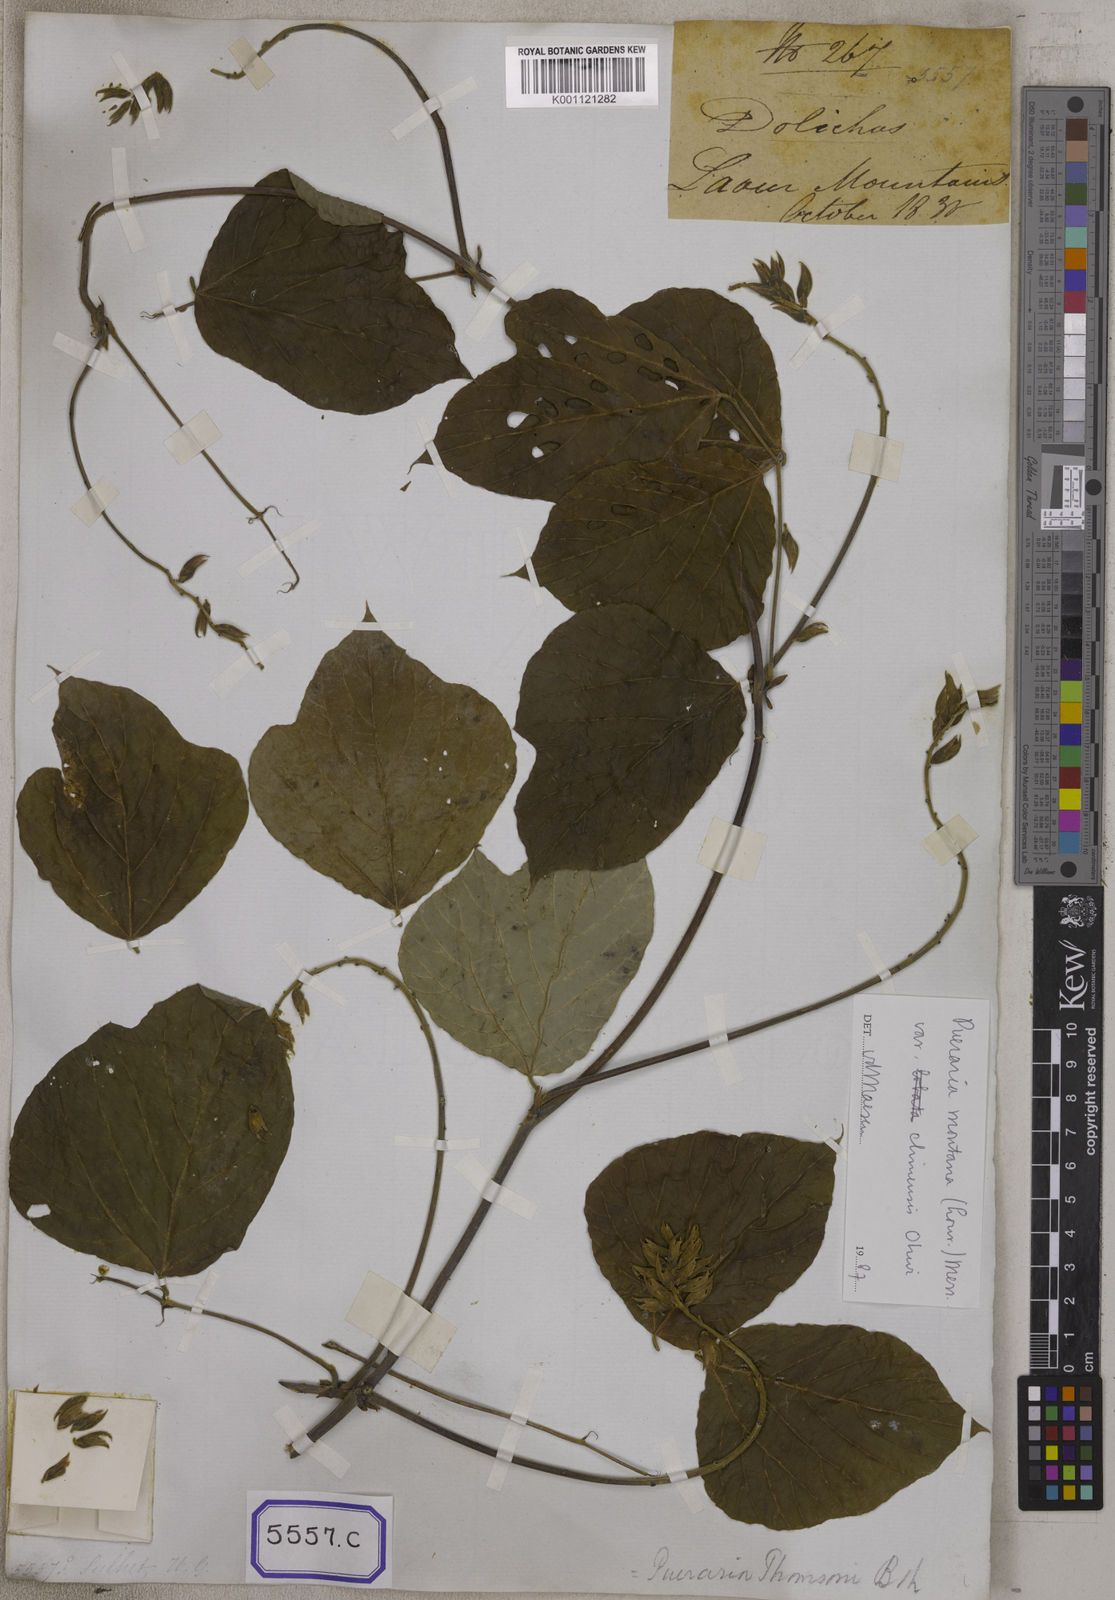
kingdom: Plantae
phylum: Tracheophyta
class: Magnoliopsida
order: Fabales
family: Fabaceae
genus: Dolichos
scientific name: Dolichos
